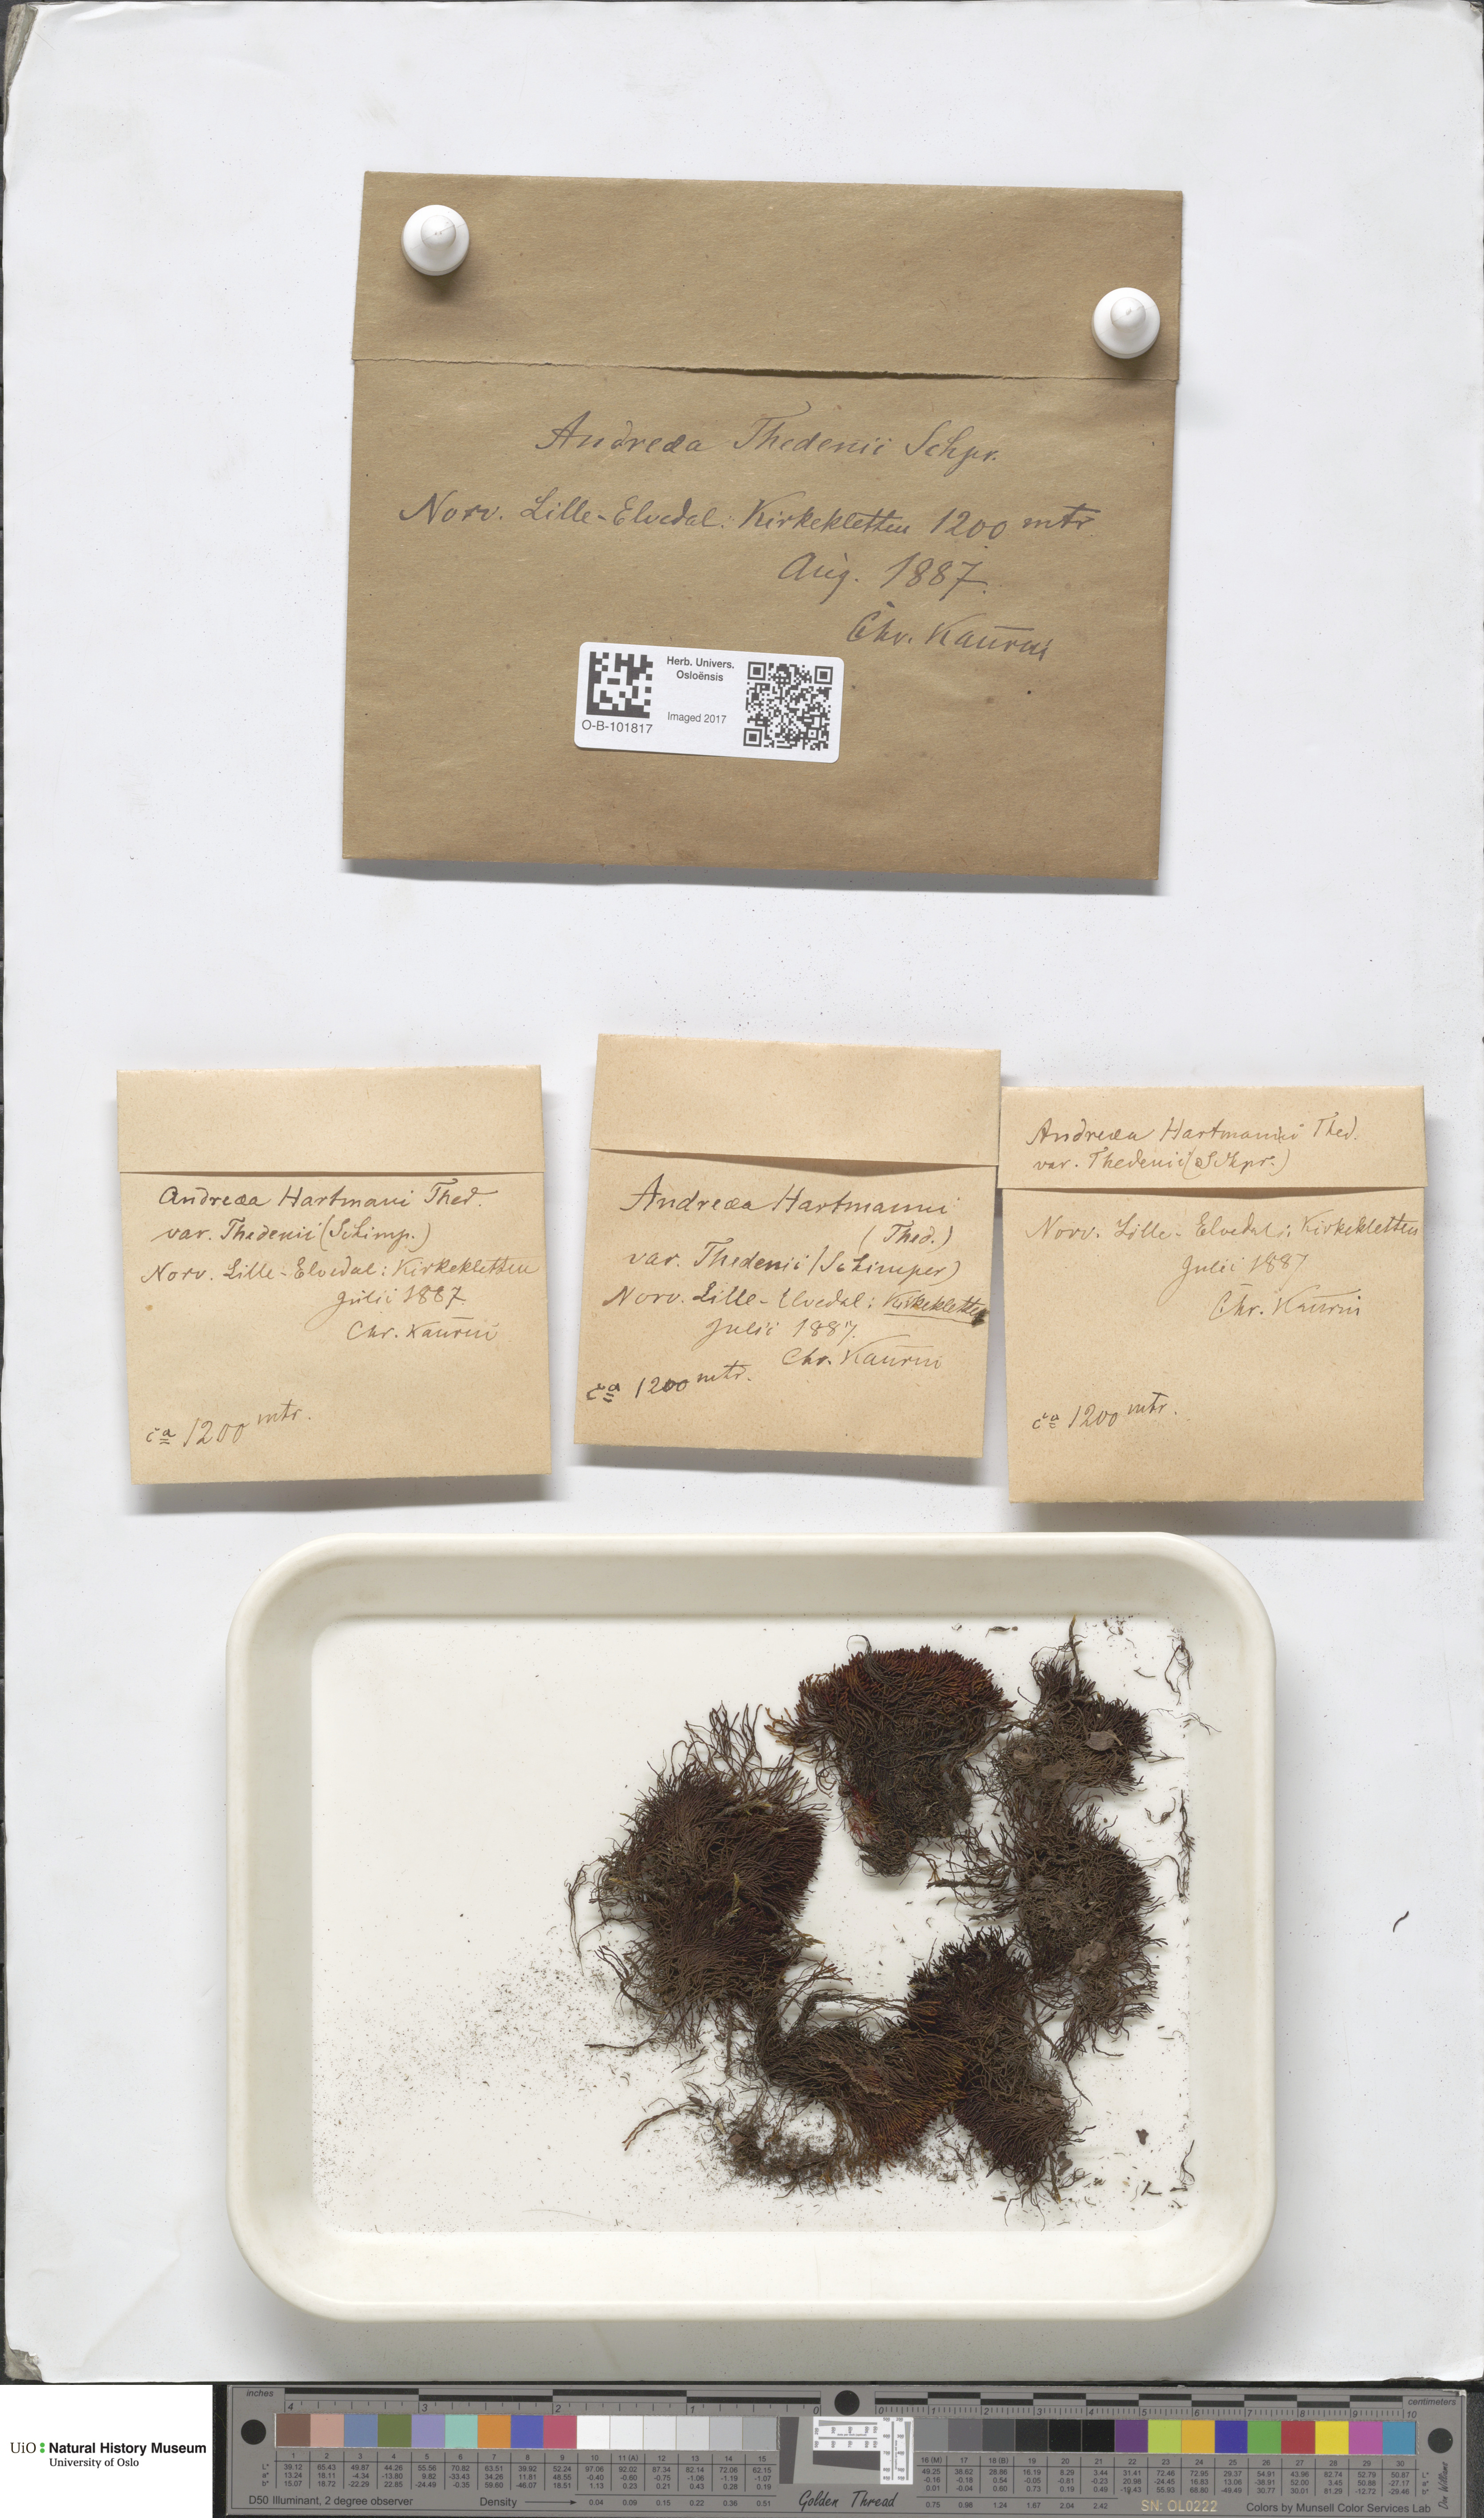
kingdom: Plantae
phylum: Bryophyta
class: Andreaeopsida
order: Andreaeales
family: Andreaeaceae
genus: Andreaea
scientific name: Andreaea hookeri
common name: Alpine rock-moss
